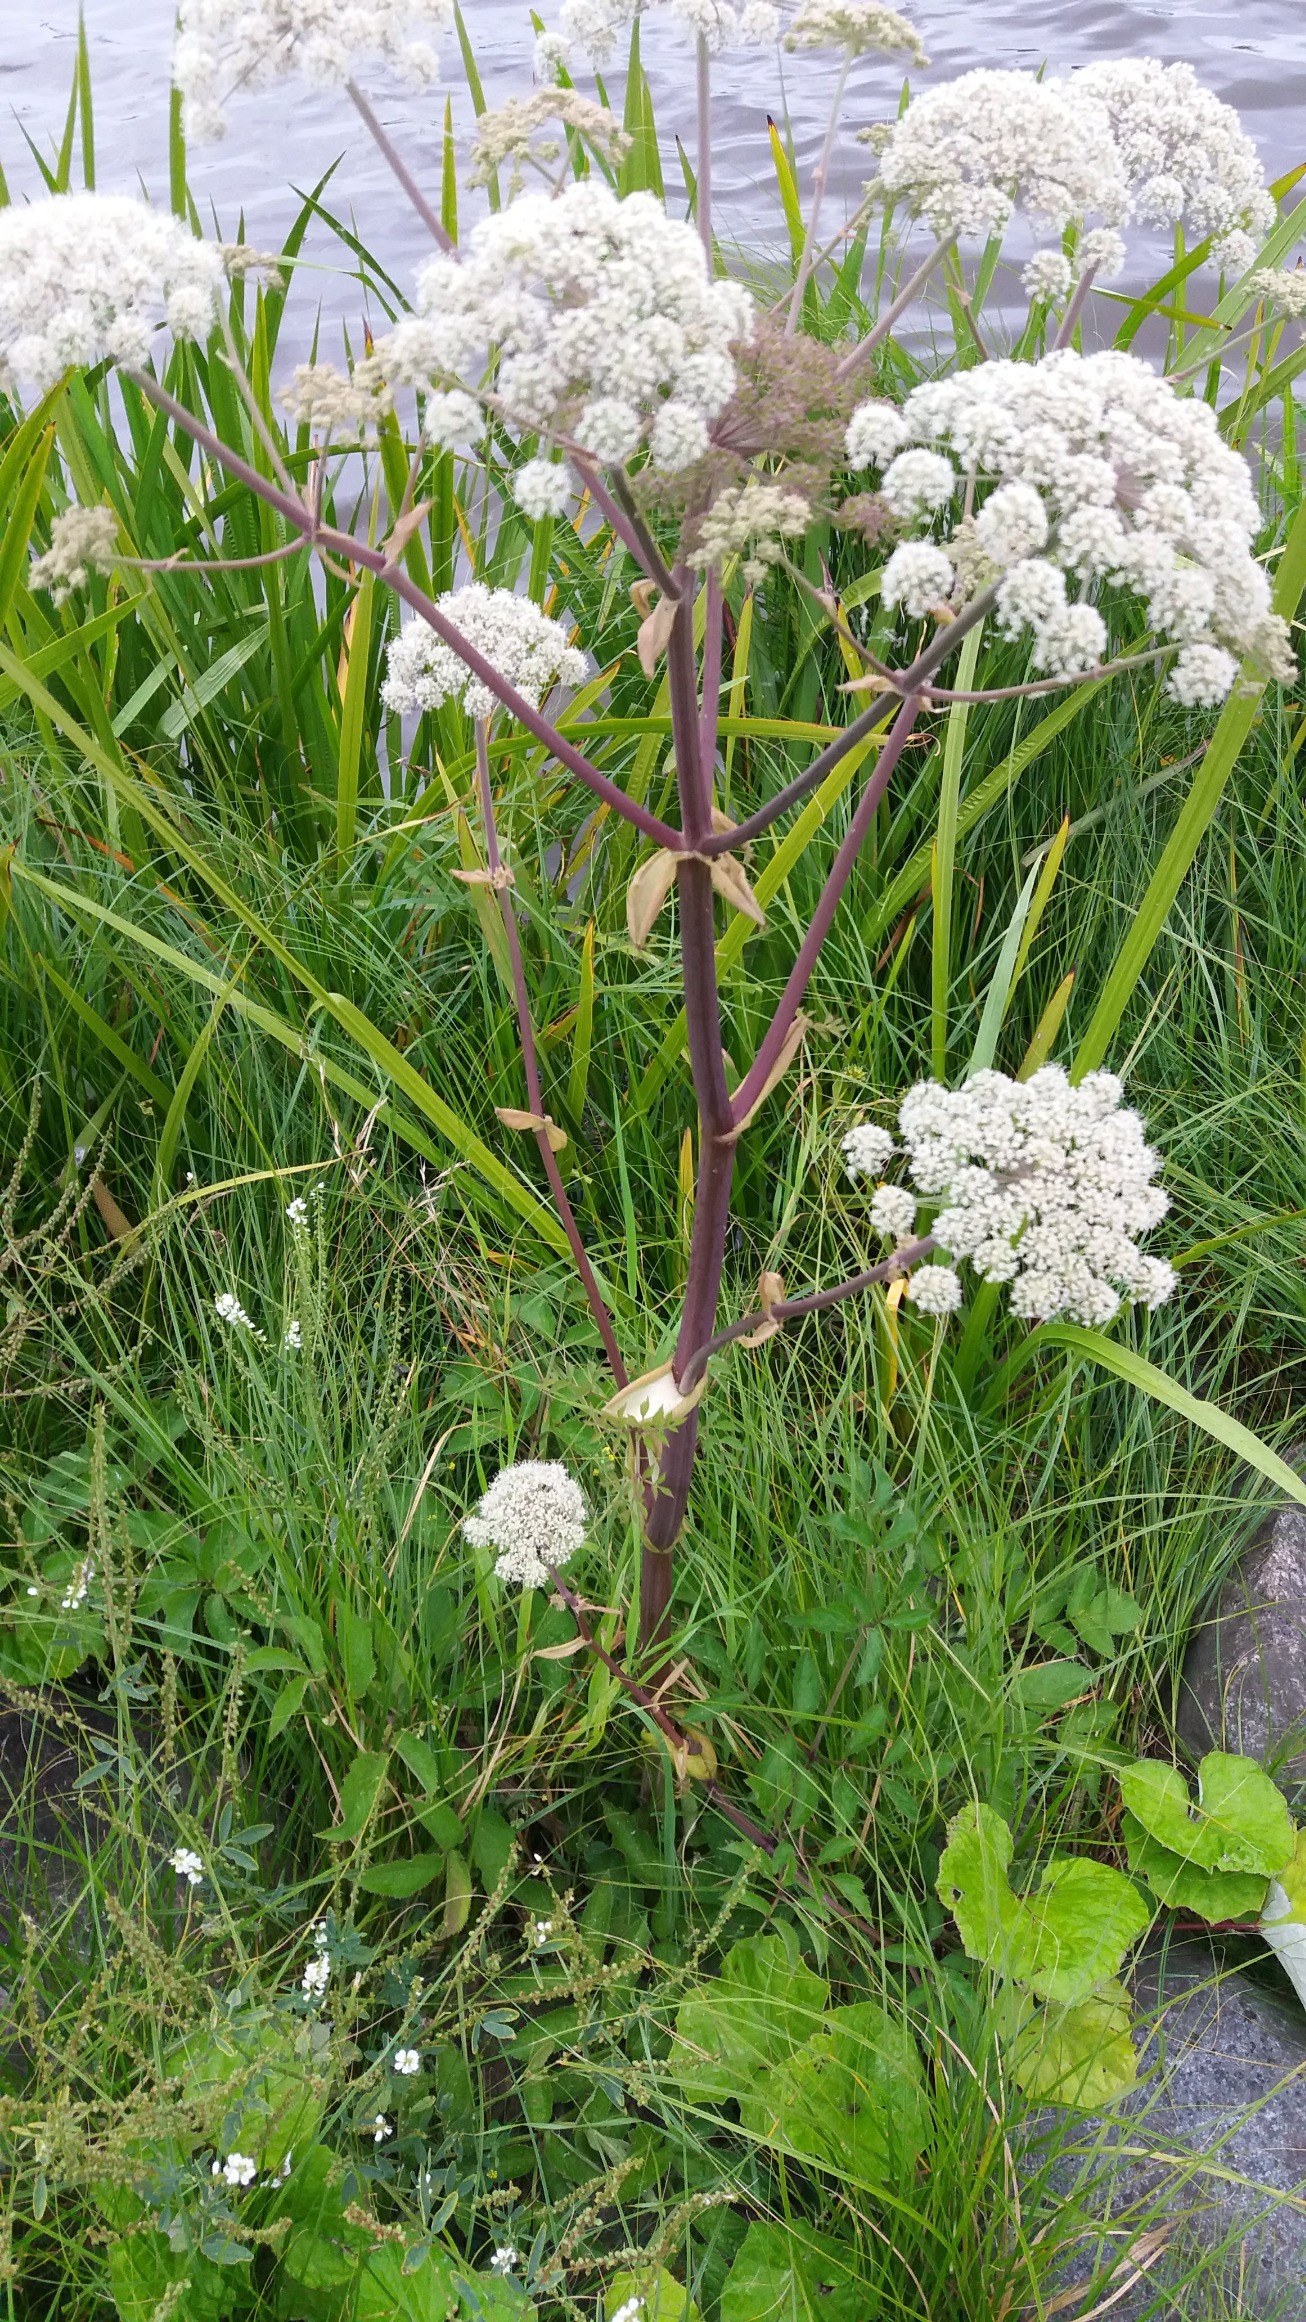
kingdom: Plantae
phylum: Tracheophyta
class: Magnoliopsida
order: Apiales
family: Apiaceae
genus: Angelica
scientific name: Angelica sylvestris
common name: Angelik
